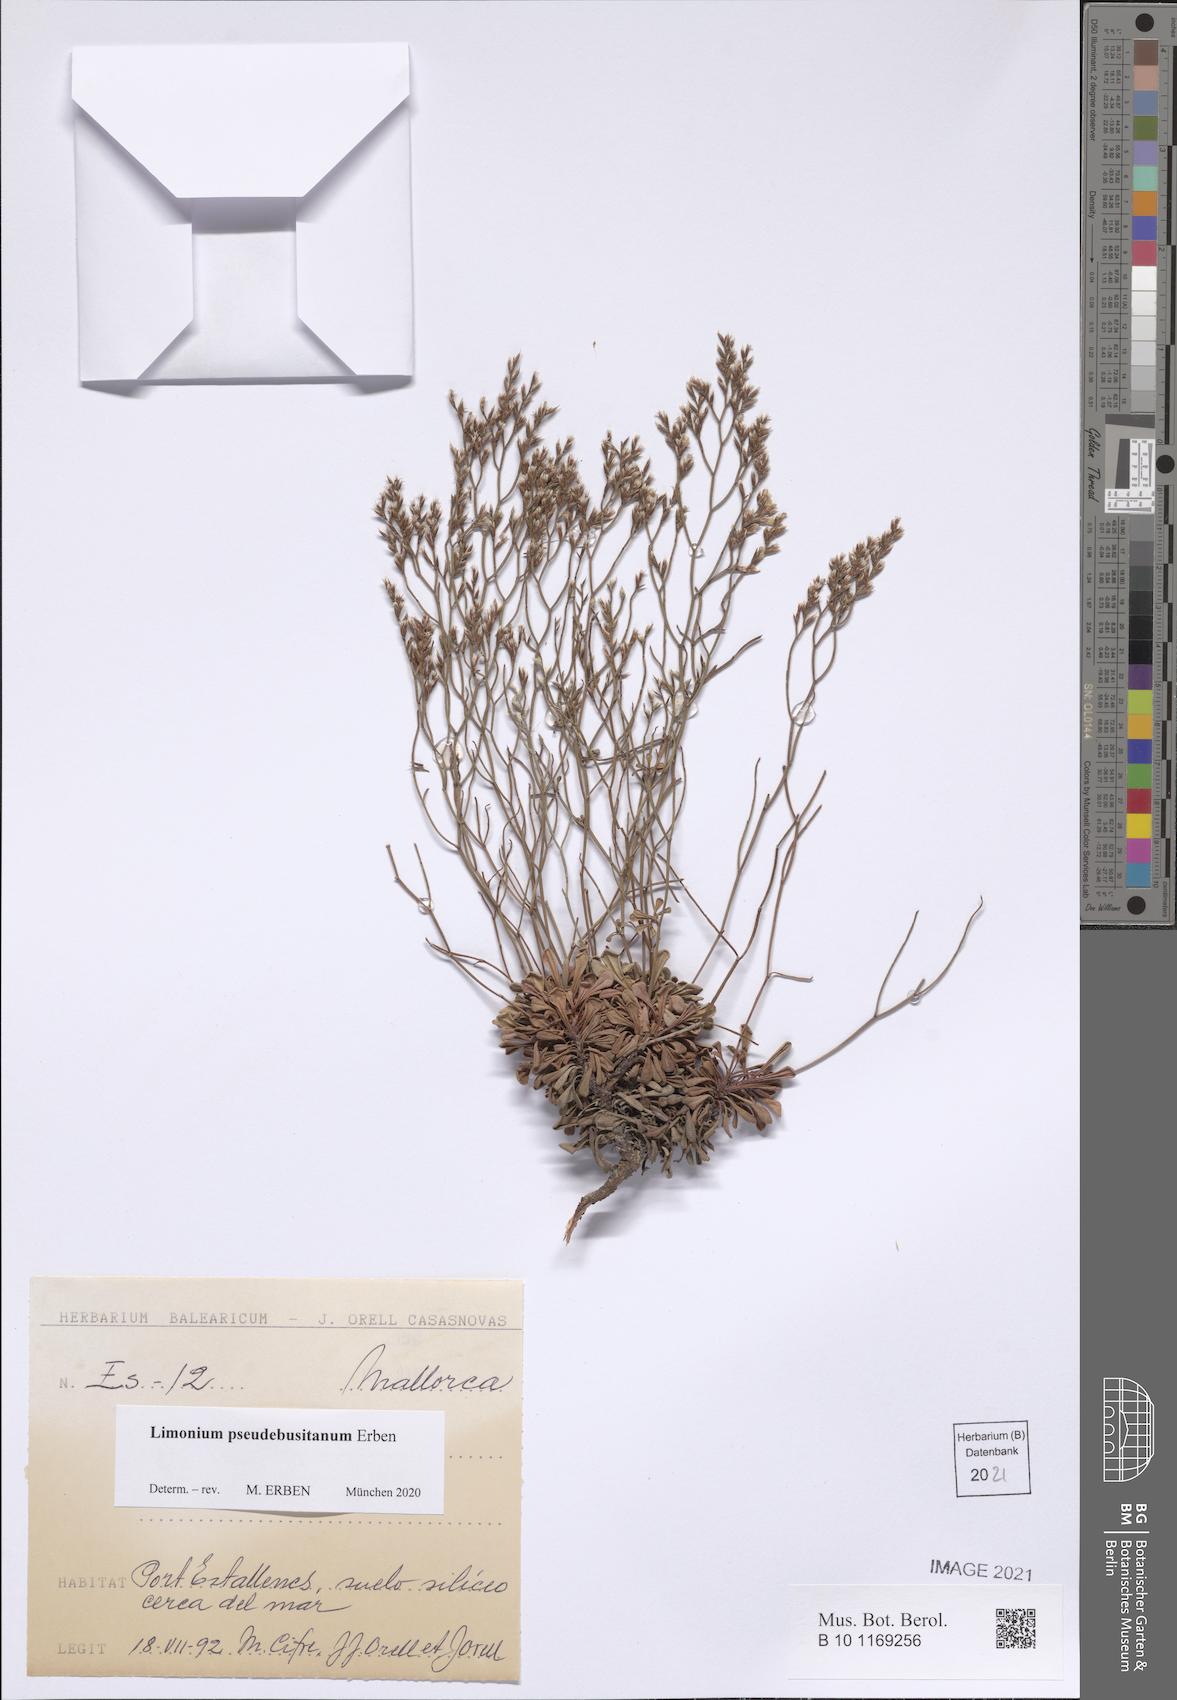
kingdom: Plantae
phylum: Tracheophyta
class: Magnoliopsida
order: Caryophyllales
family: Plumbaginaceae
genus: Limonium
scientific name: Limonium pseudebusitanum
